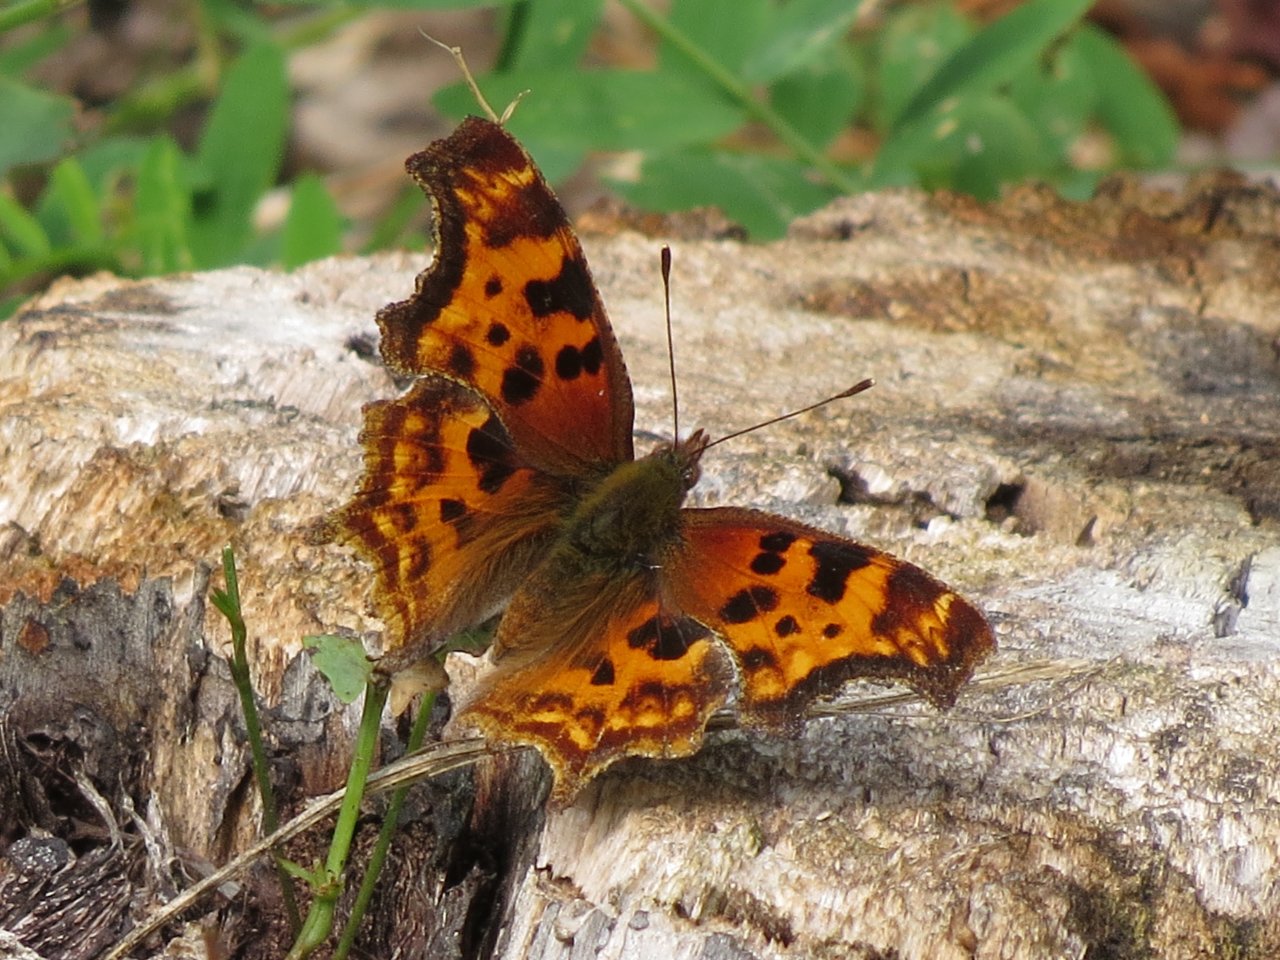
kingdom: Animalia
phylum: Arthropoda
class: Insecta
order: Lepidoptera
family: Nymphalidae
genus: Polygonia
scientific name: Polygonia satyrus
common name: Satyr Comma
